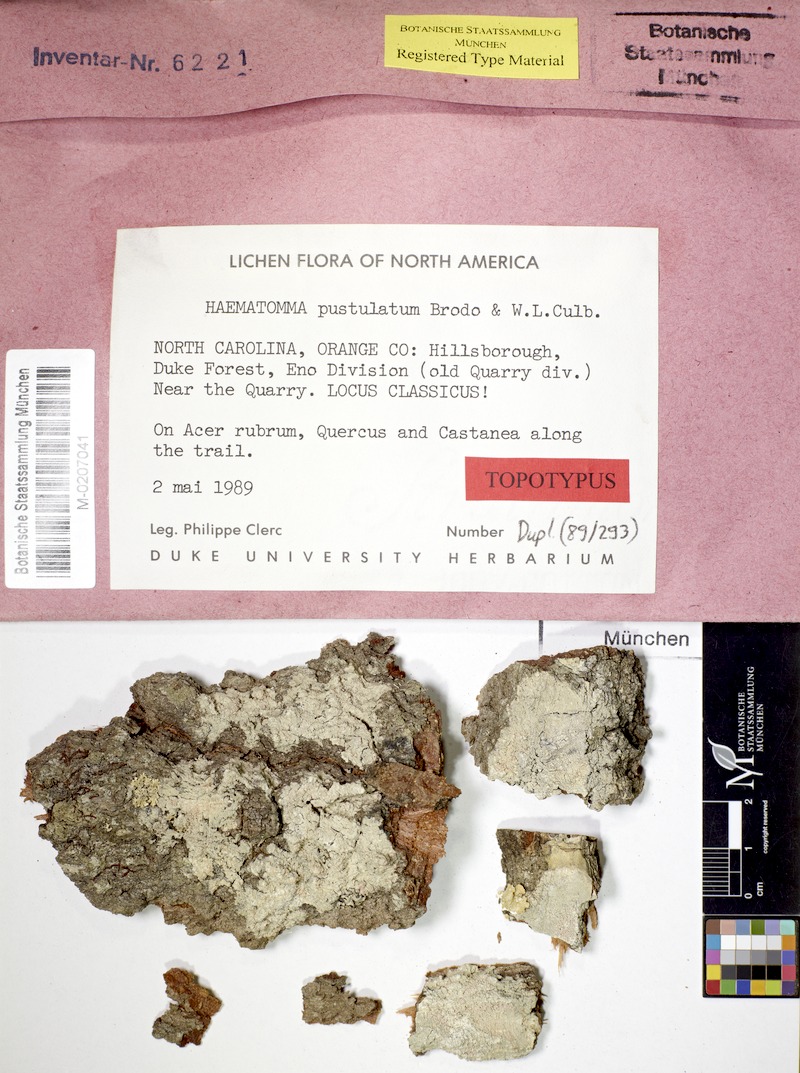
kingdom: Fungi
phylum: Ascomycota
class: Lecanoromycetes
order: Pertusariales
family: Pertusariaceae
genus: Lepra
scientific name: Lepra pustulata
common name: Pustule crust lichen
